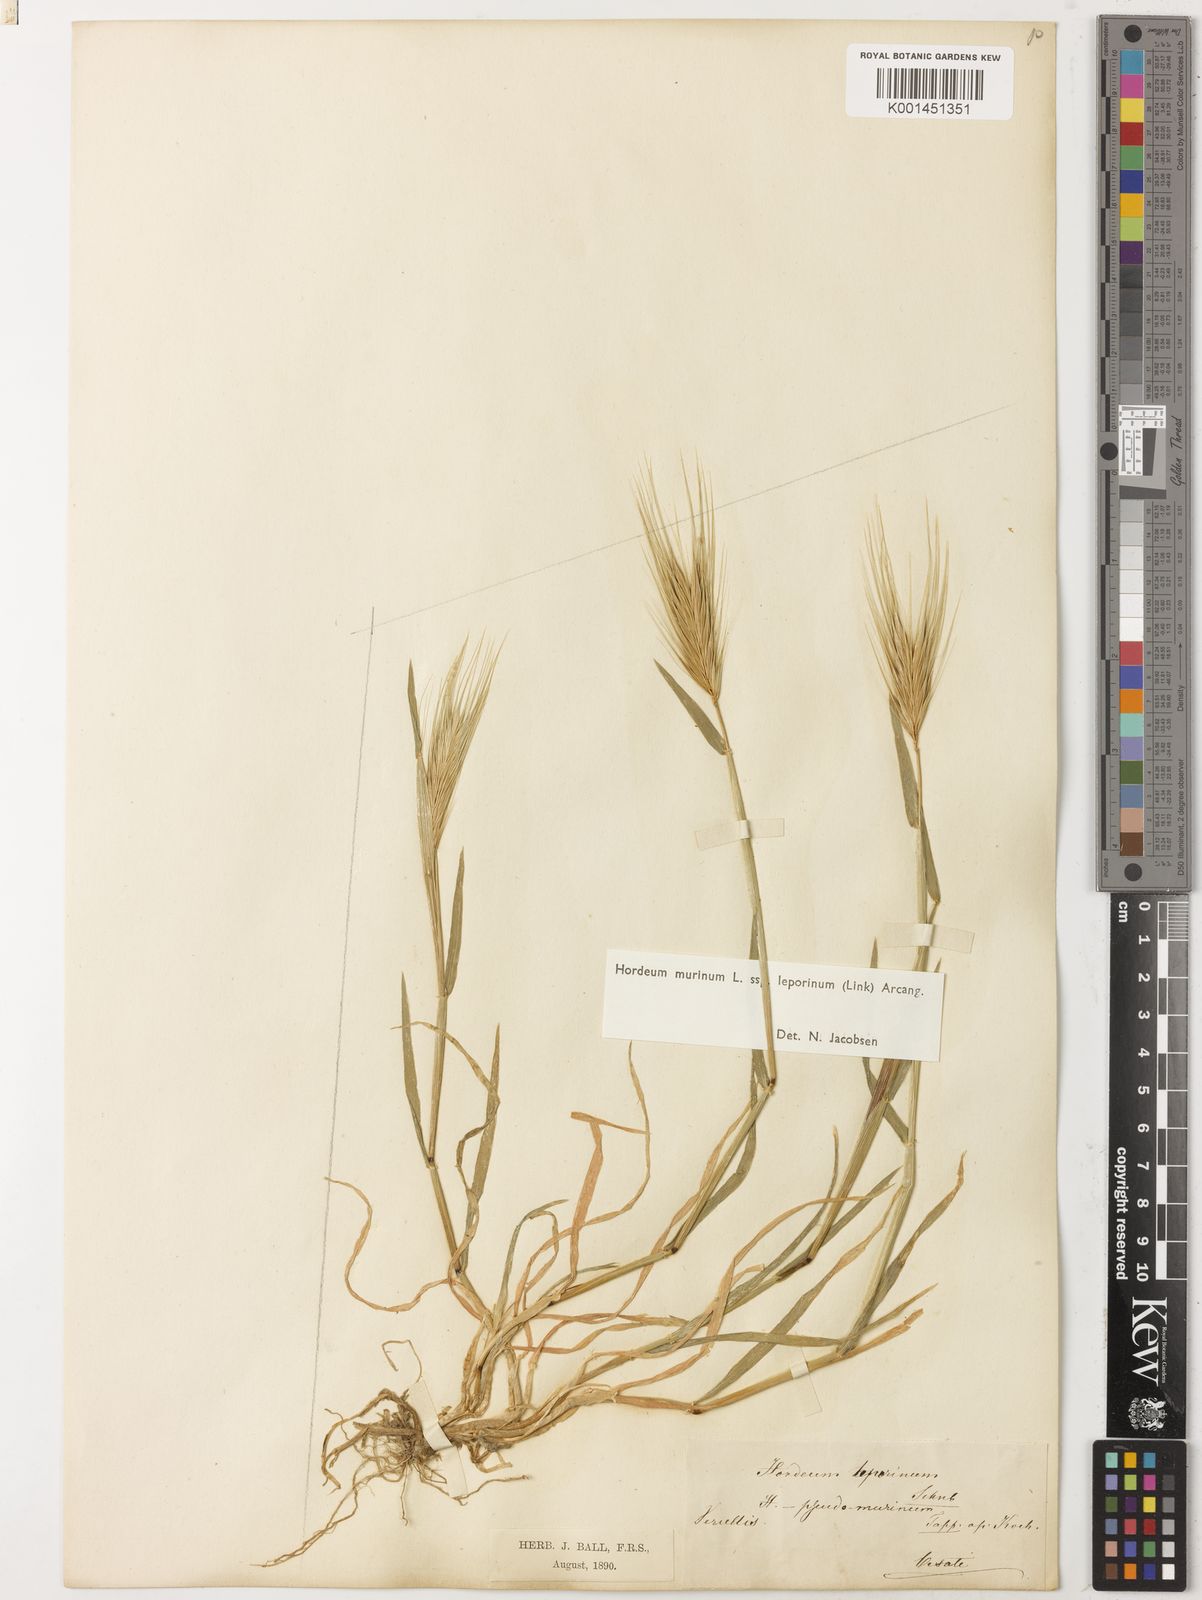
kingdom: Plantae
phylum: Tracheophyta
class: Liliopsida
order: Poales
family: Poaceae
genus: Hordeum
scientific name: Hordeum murinum
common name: Wall barley
